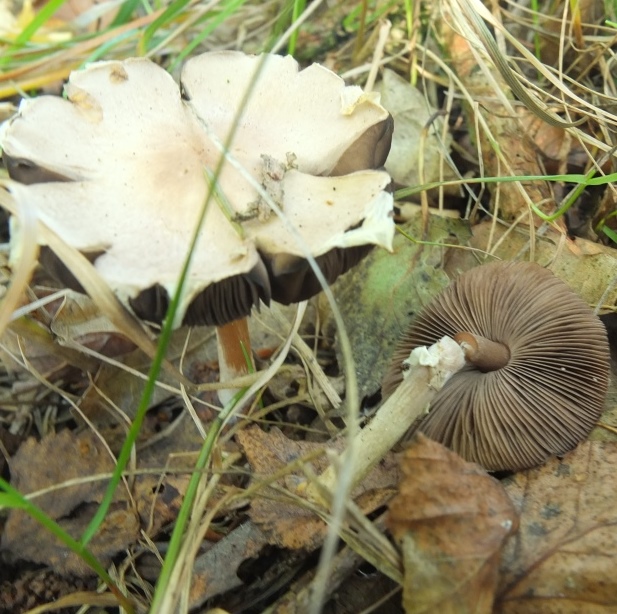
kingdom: Fungi
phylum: Basidiomycota
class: Agaricomycetes
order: Agaricales
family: Agaricaceae
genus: Agaricus
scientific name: Agaricus dulcidulus
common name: blegrød champignon
